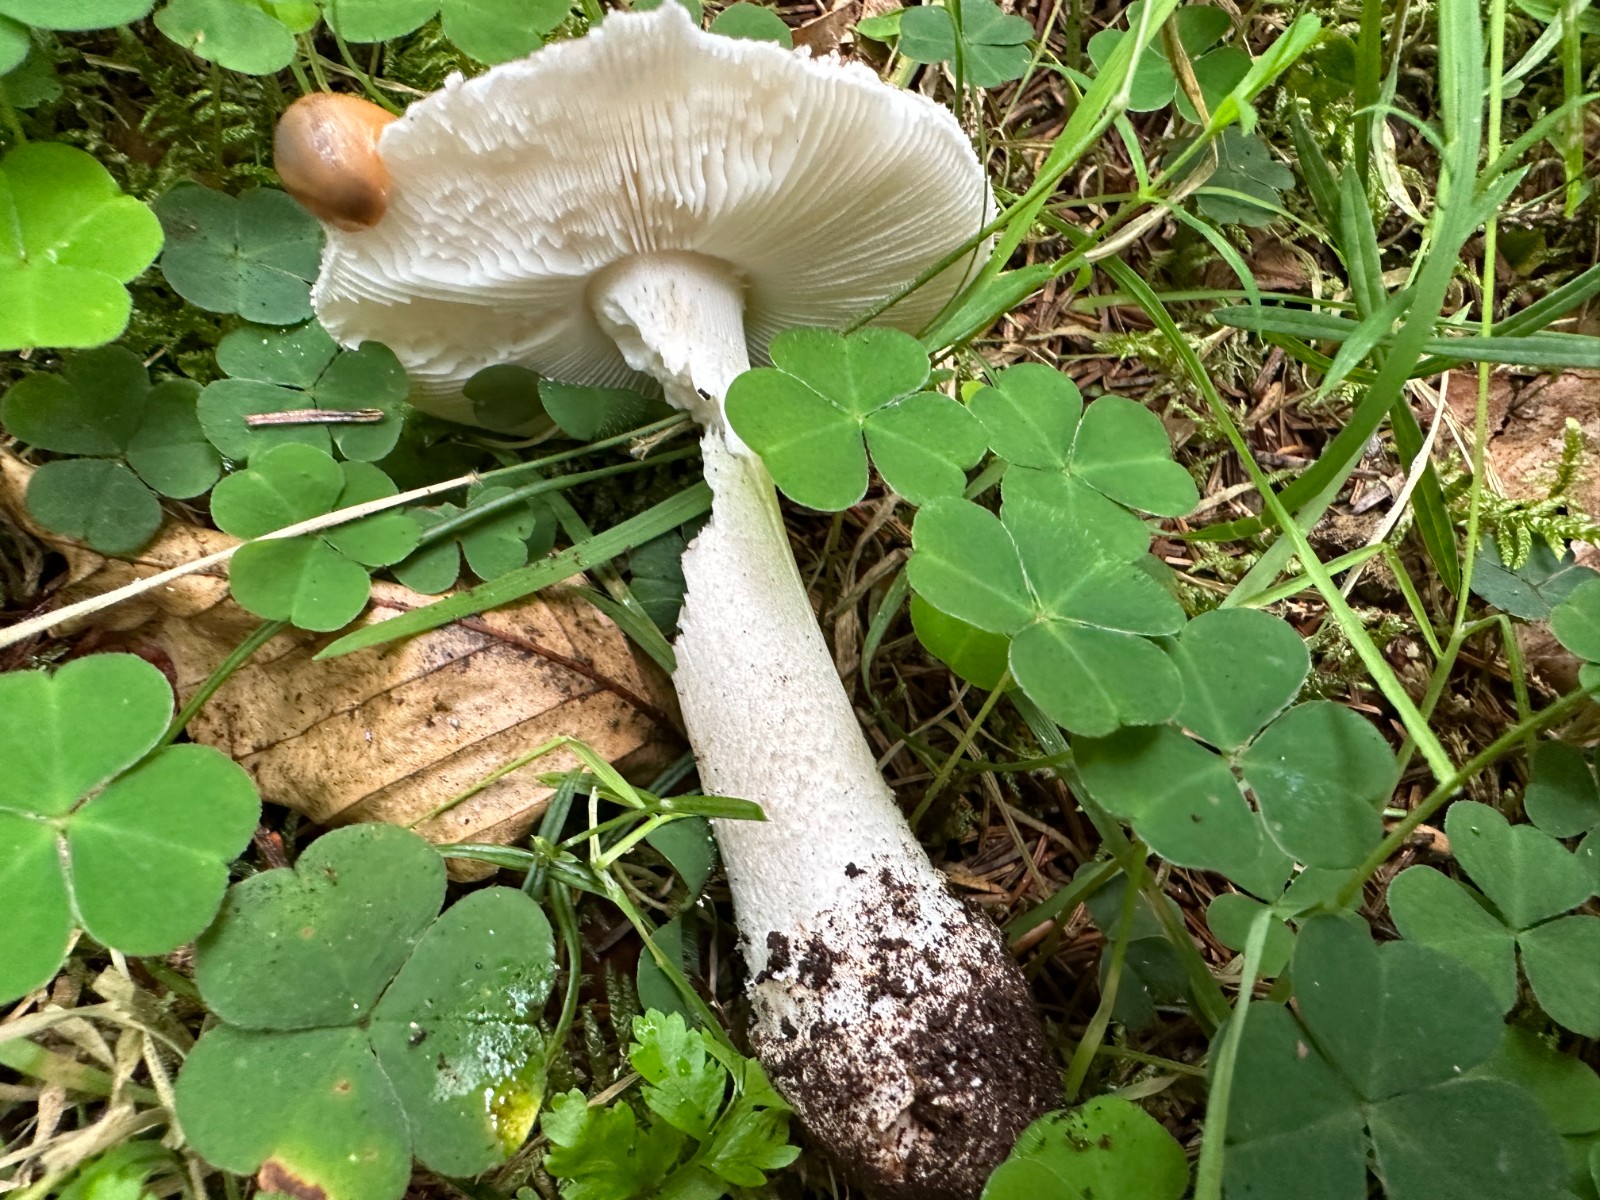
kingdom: Fungi
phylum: Basidiomycota
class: Agaricomycetes
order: Agaricales
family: Amanitaceae
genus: Amanita
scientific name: Amanita
